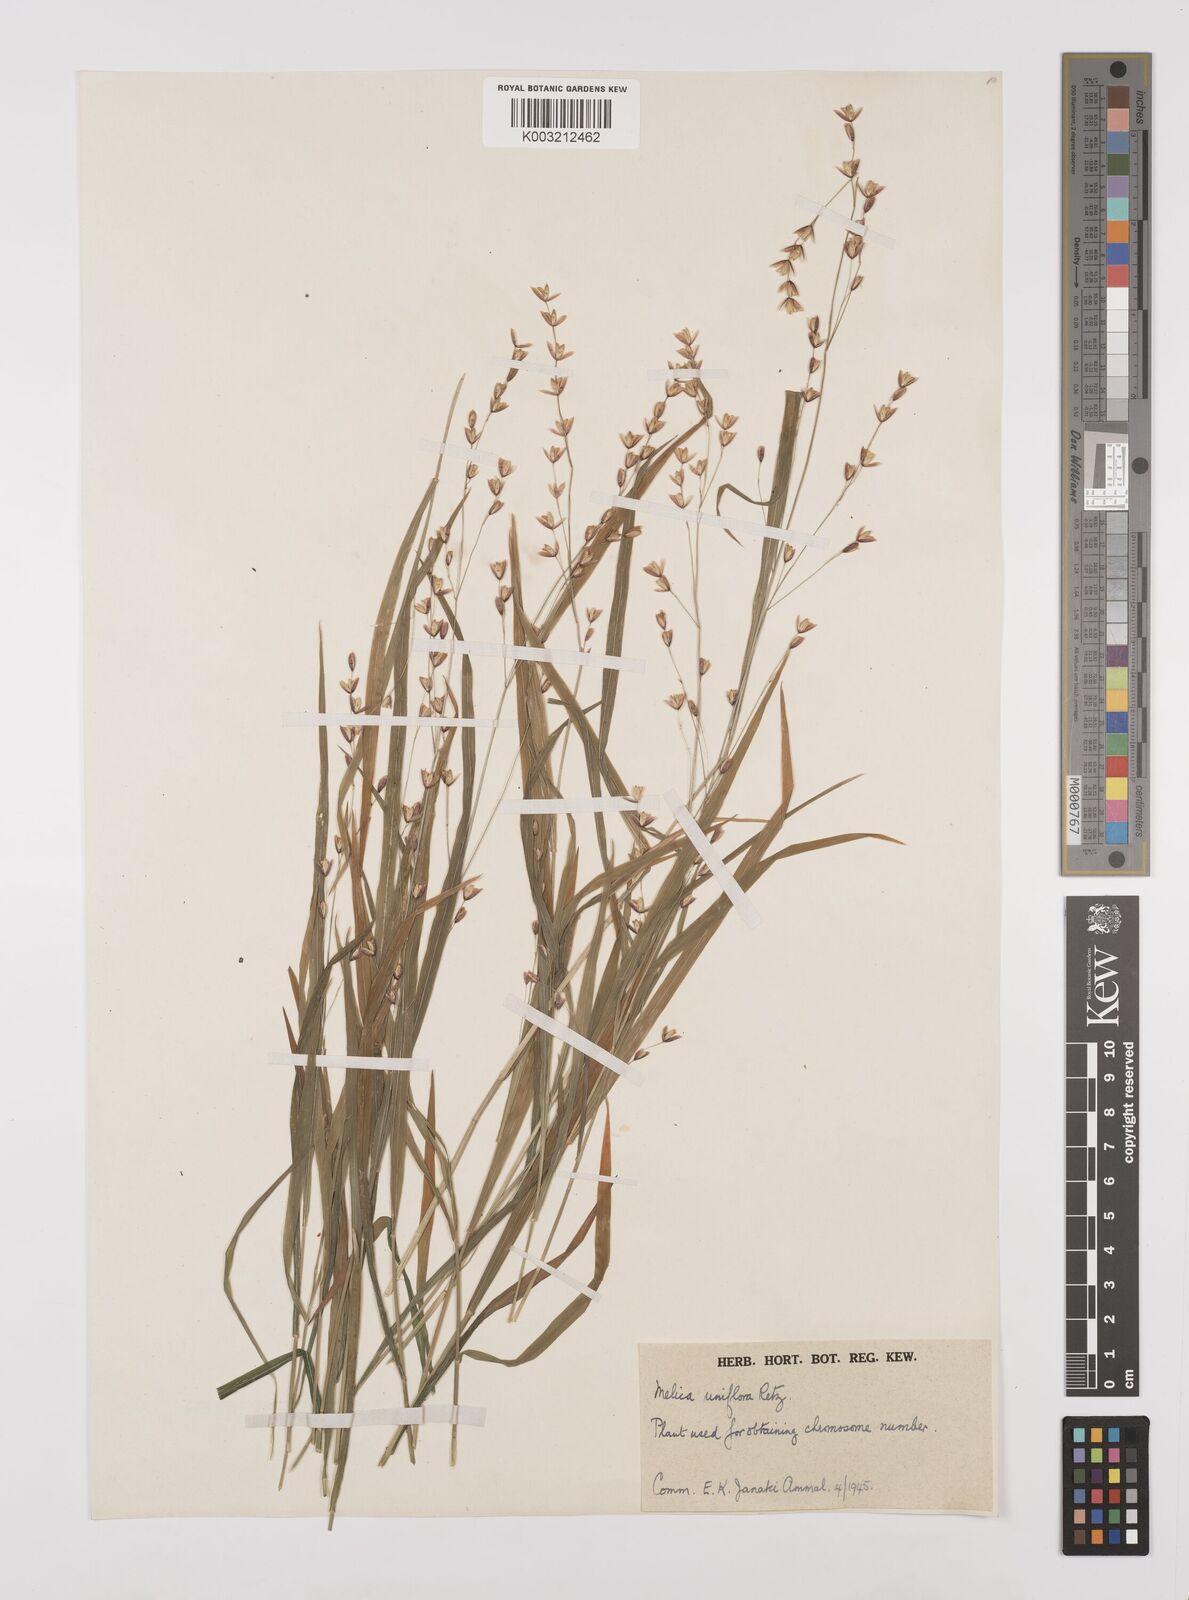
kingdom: Plantae
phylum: Tracheophyta
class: Liliopsida
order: Poales
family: Poaceae
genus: Melica
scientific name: Melica uniflora
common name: Wood melick
